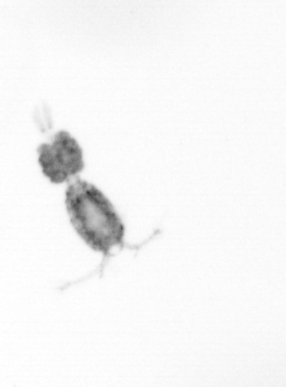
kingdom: Animalia
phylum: Arthropoda
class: Copepoda
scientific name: Copepoda
